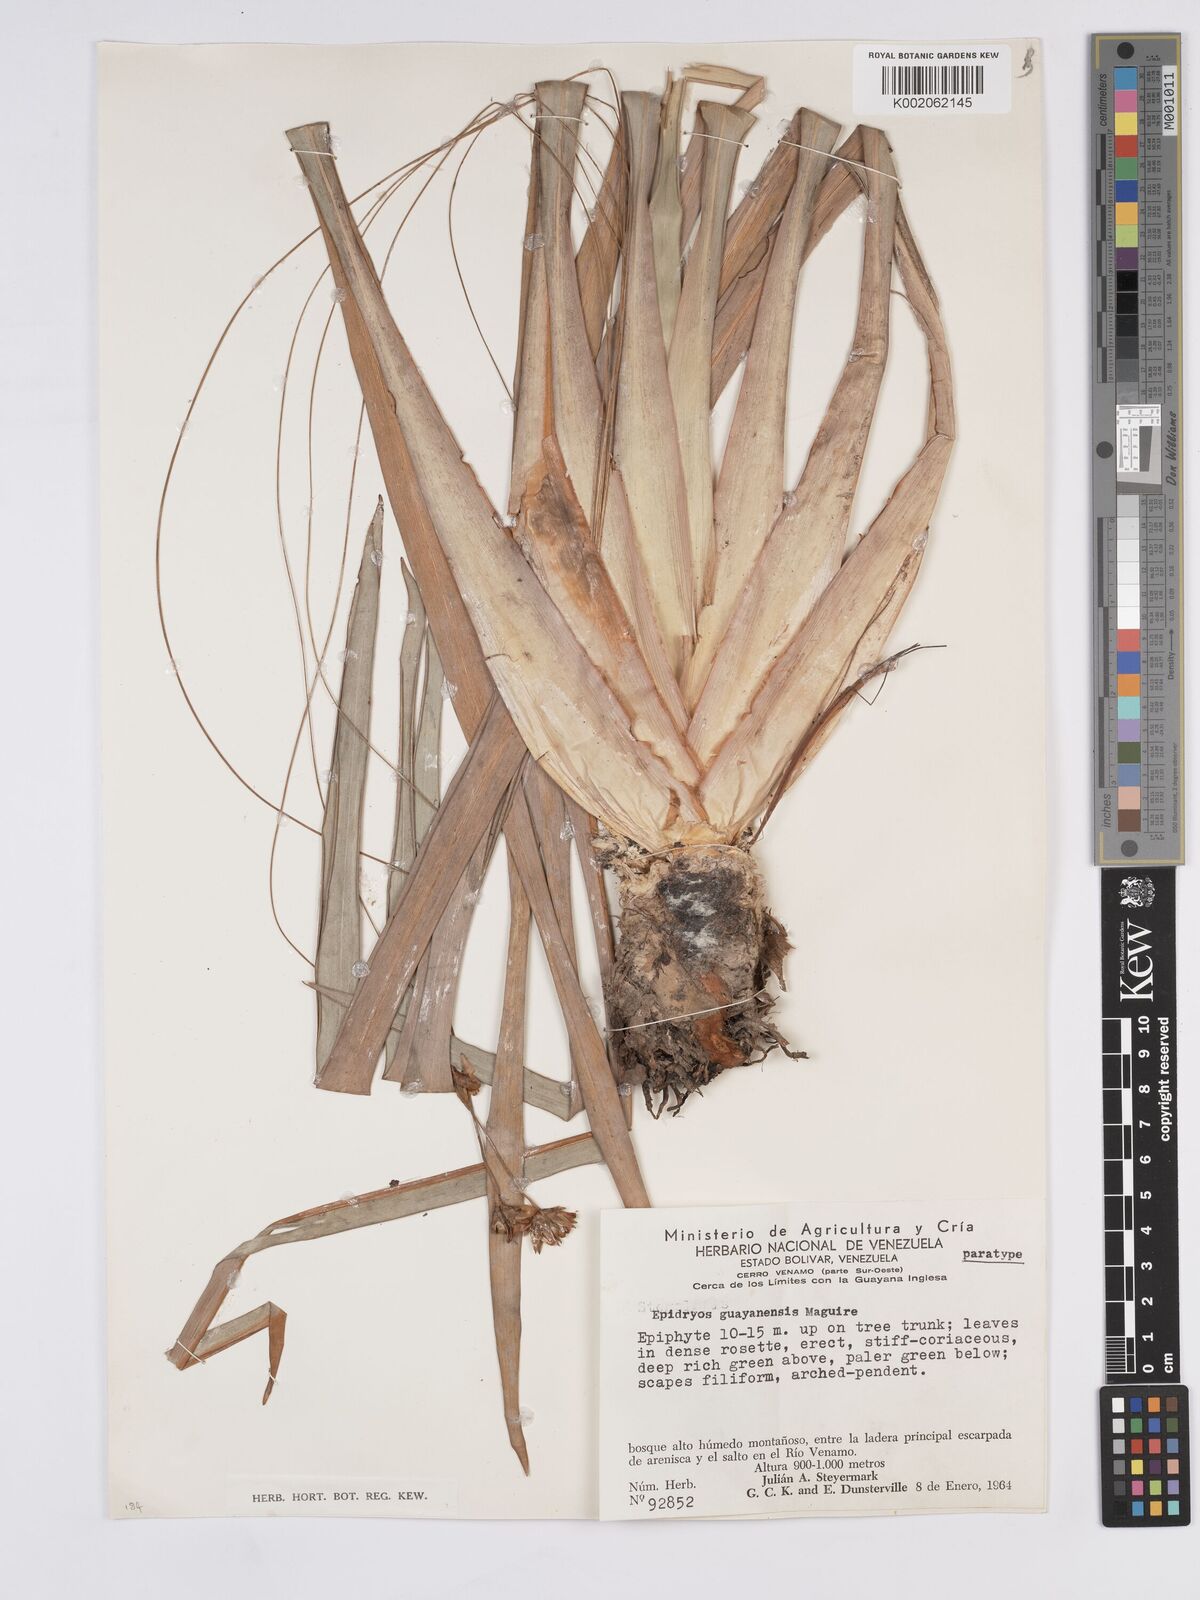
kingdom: Plantae
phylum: Tracheophyta
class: Liliopsida
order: Poales
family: Rapateaceae
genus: Epidryos
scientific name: Epidryos guayanensis
